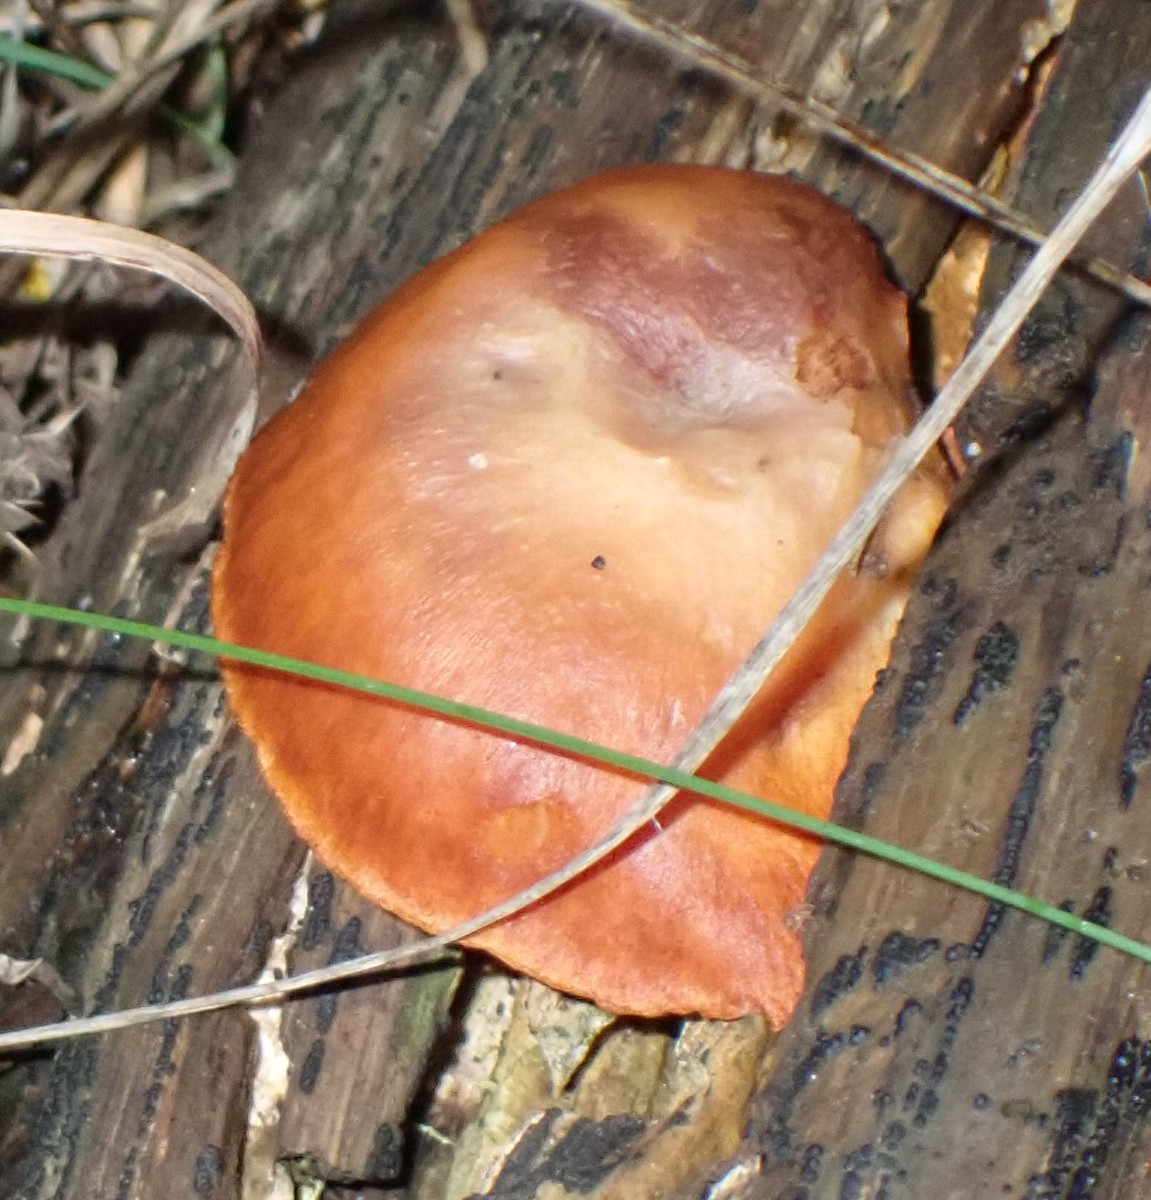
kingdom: Fungi
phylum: Basidiomycota
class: Agaricomycetes
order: Agaricales
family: Hymenogastraceae
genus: Gymnopilus
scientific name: Gymnopilus penetrans
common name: plettet flammehat
